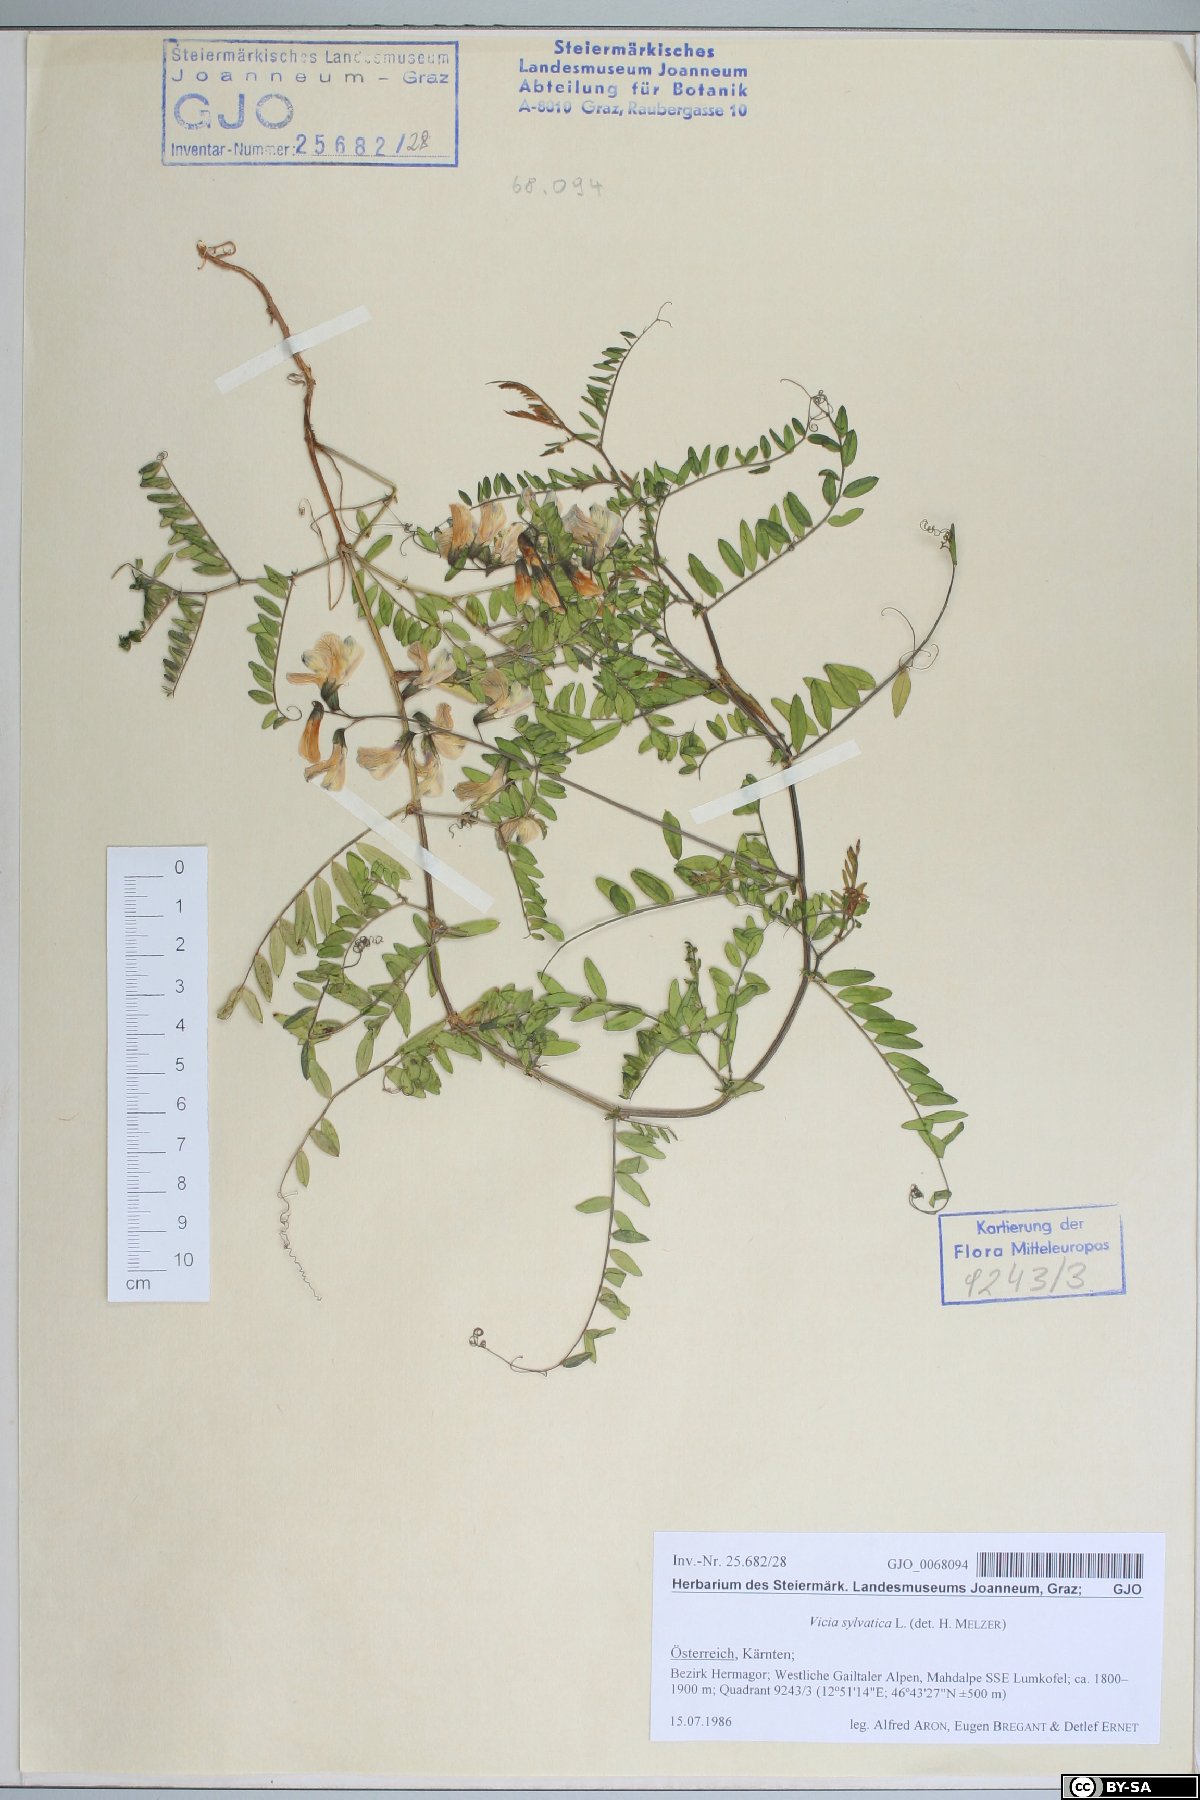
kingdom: Plantae
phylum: Tracheophyta
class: Magnoliopsida
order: Fabales
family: Fabaceae
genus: Vicia
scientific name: Vicia sylvatica
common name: Wood vetch
